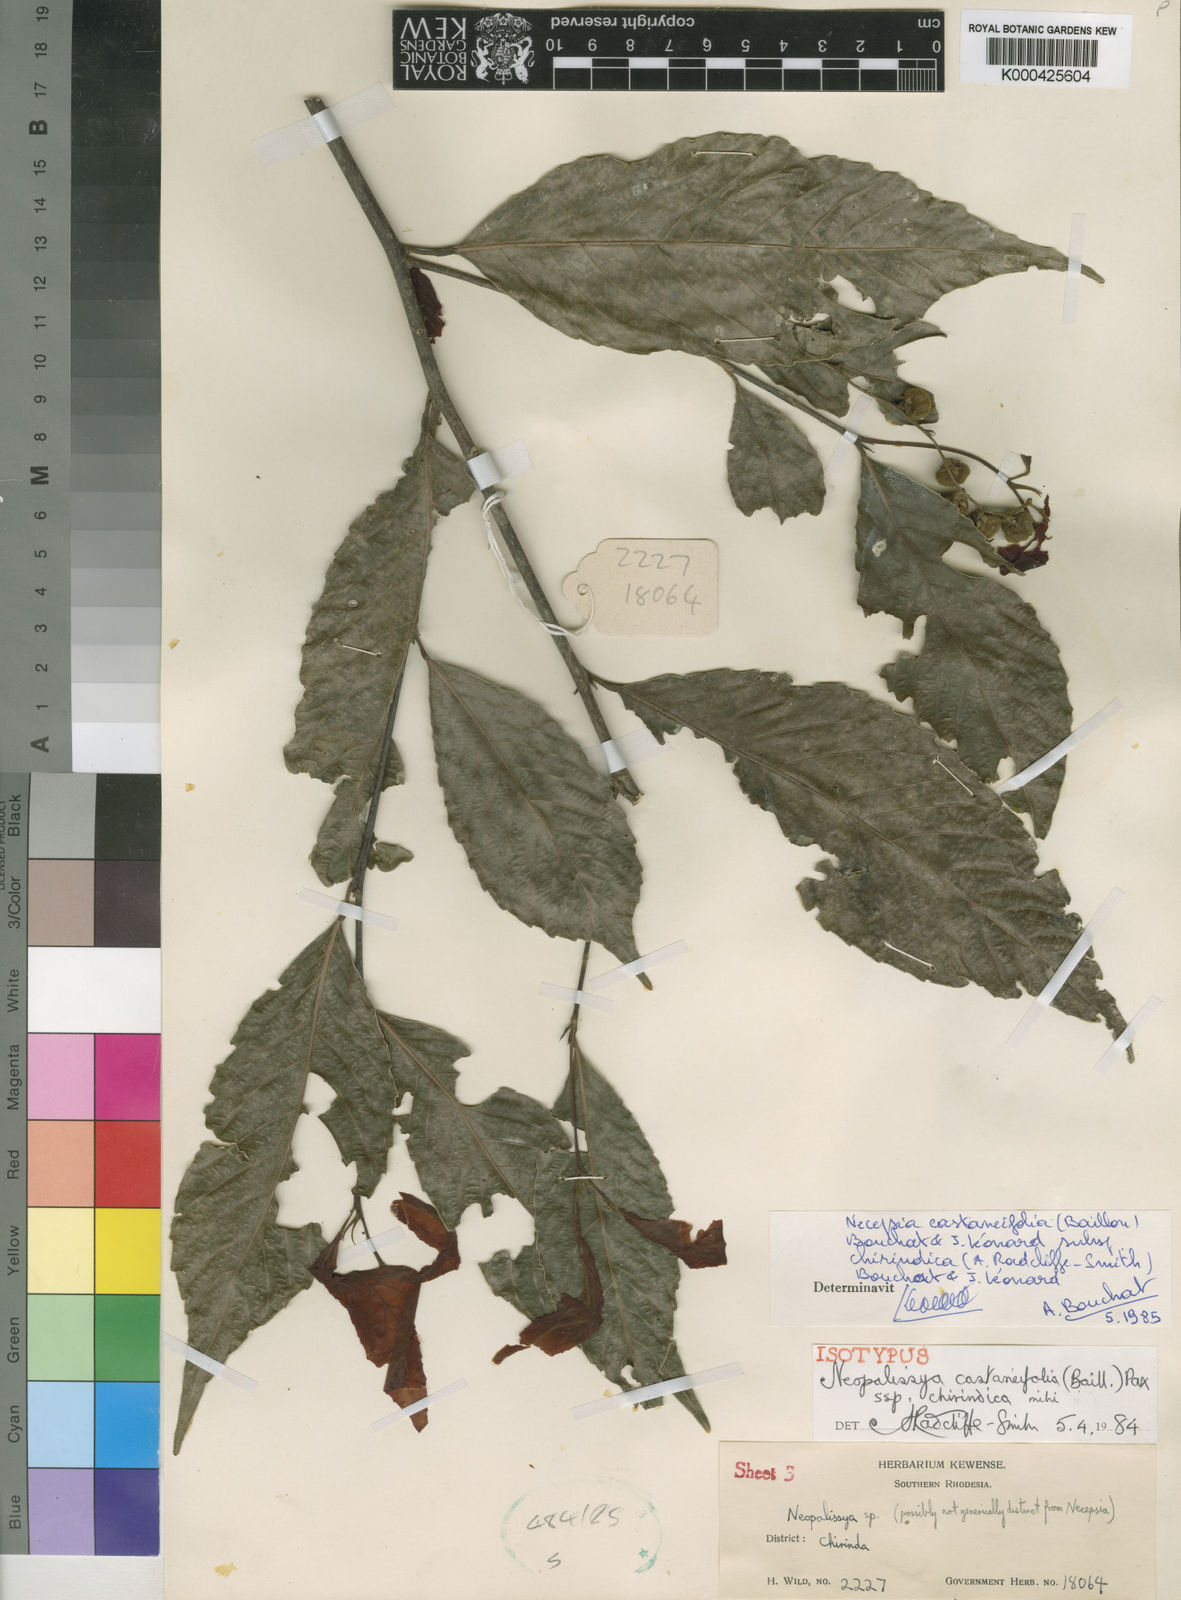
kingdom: Plantae
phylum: Tracheophyta
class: Magnoliopsida
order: Malpighiales
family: Euphorbiaceae
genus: Necepsia
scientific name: Necepsia
